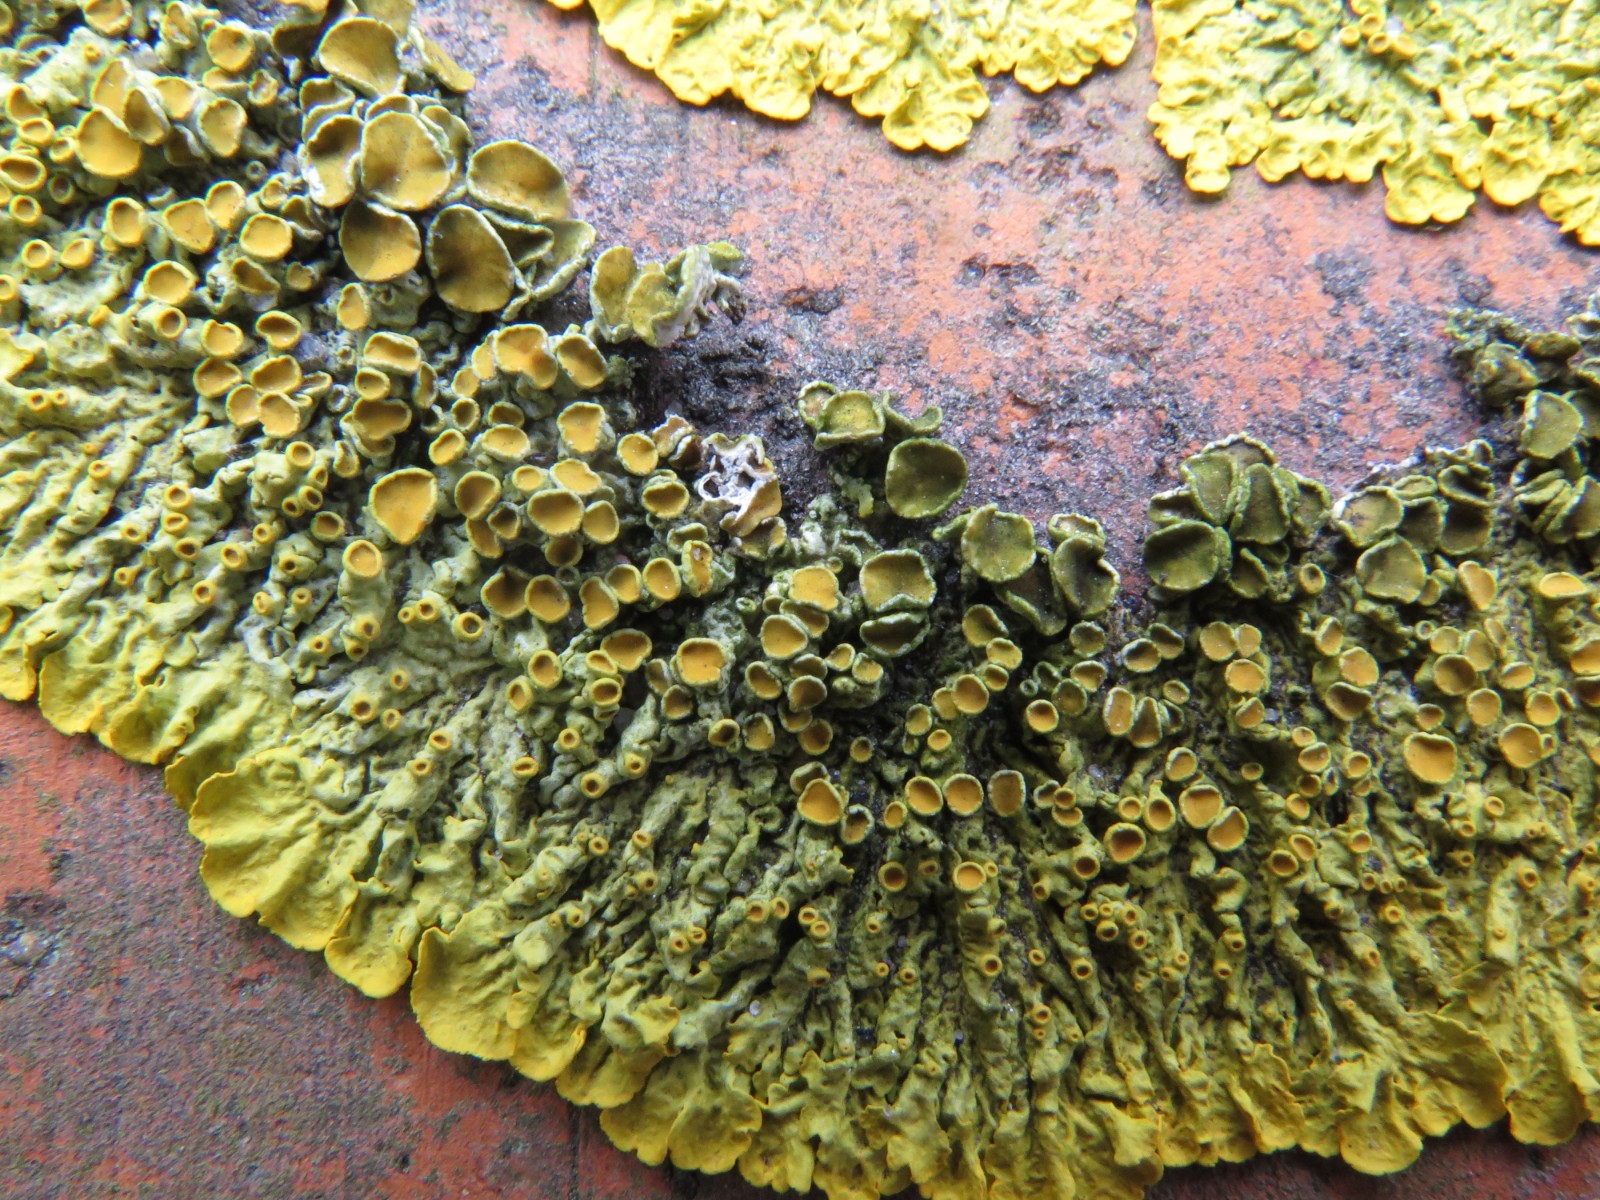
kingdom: Fungi
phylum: Ascomycota
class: Dothideomycetes
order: Mycosphaerellales
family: Teratosphaeriaceae
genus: Xanthoriicola
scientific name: Xanthoriicola physciae
